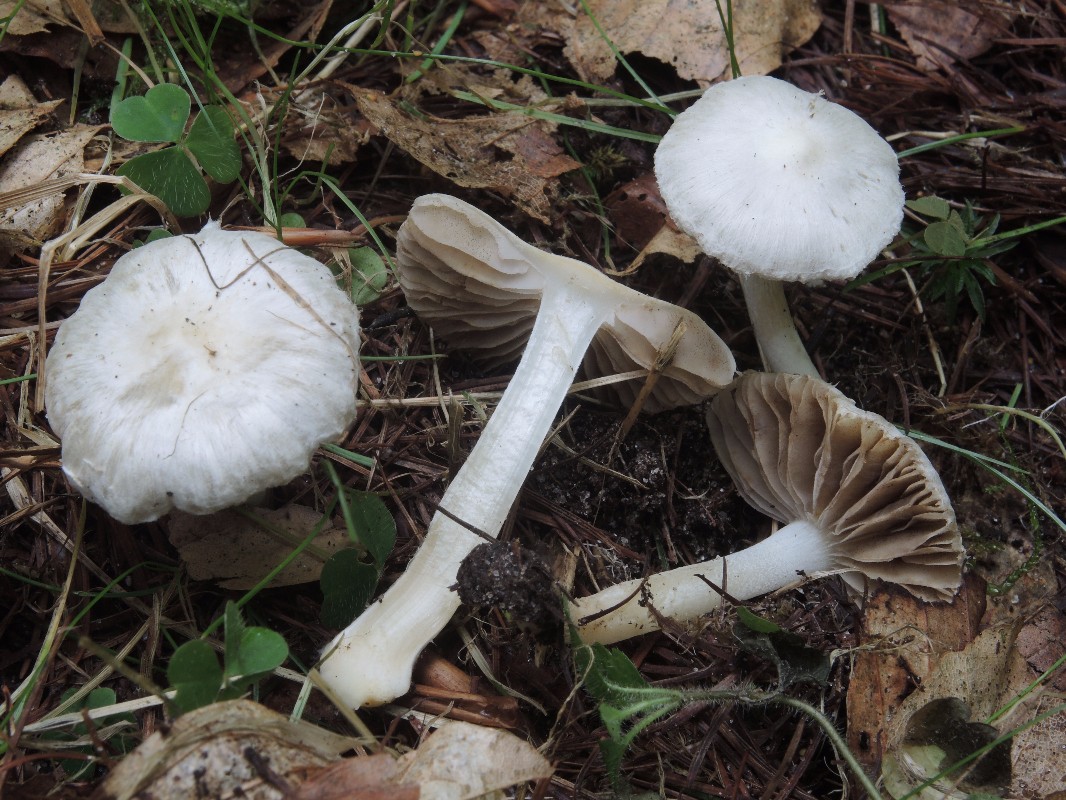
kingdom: Fungi
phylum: Basidiomycota
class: Agaricomycetes
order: Agaricales
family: Inocybaceae
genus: Inocybe
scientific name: Inocybe
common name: almindelig trævlhat
